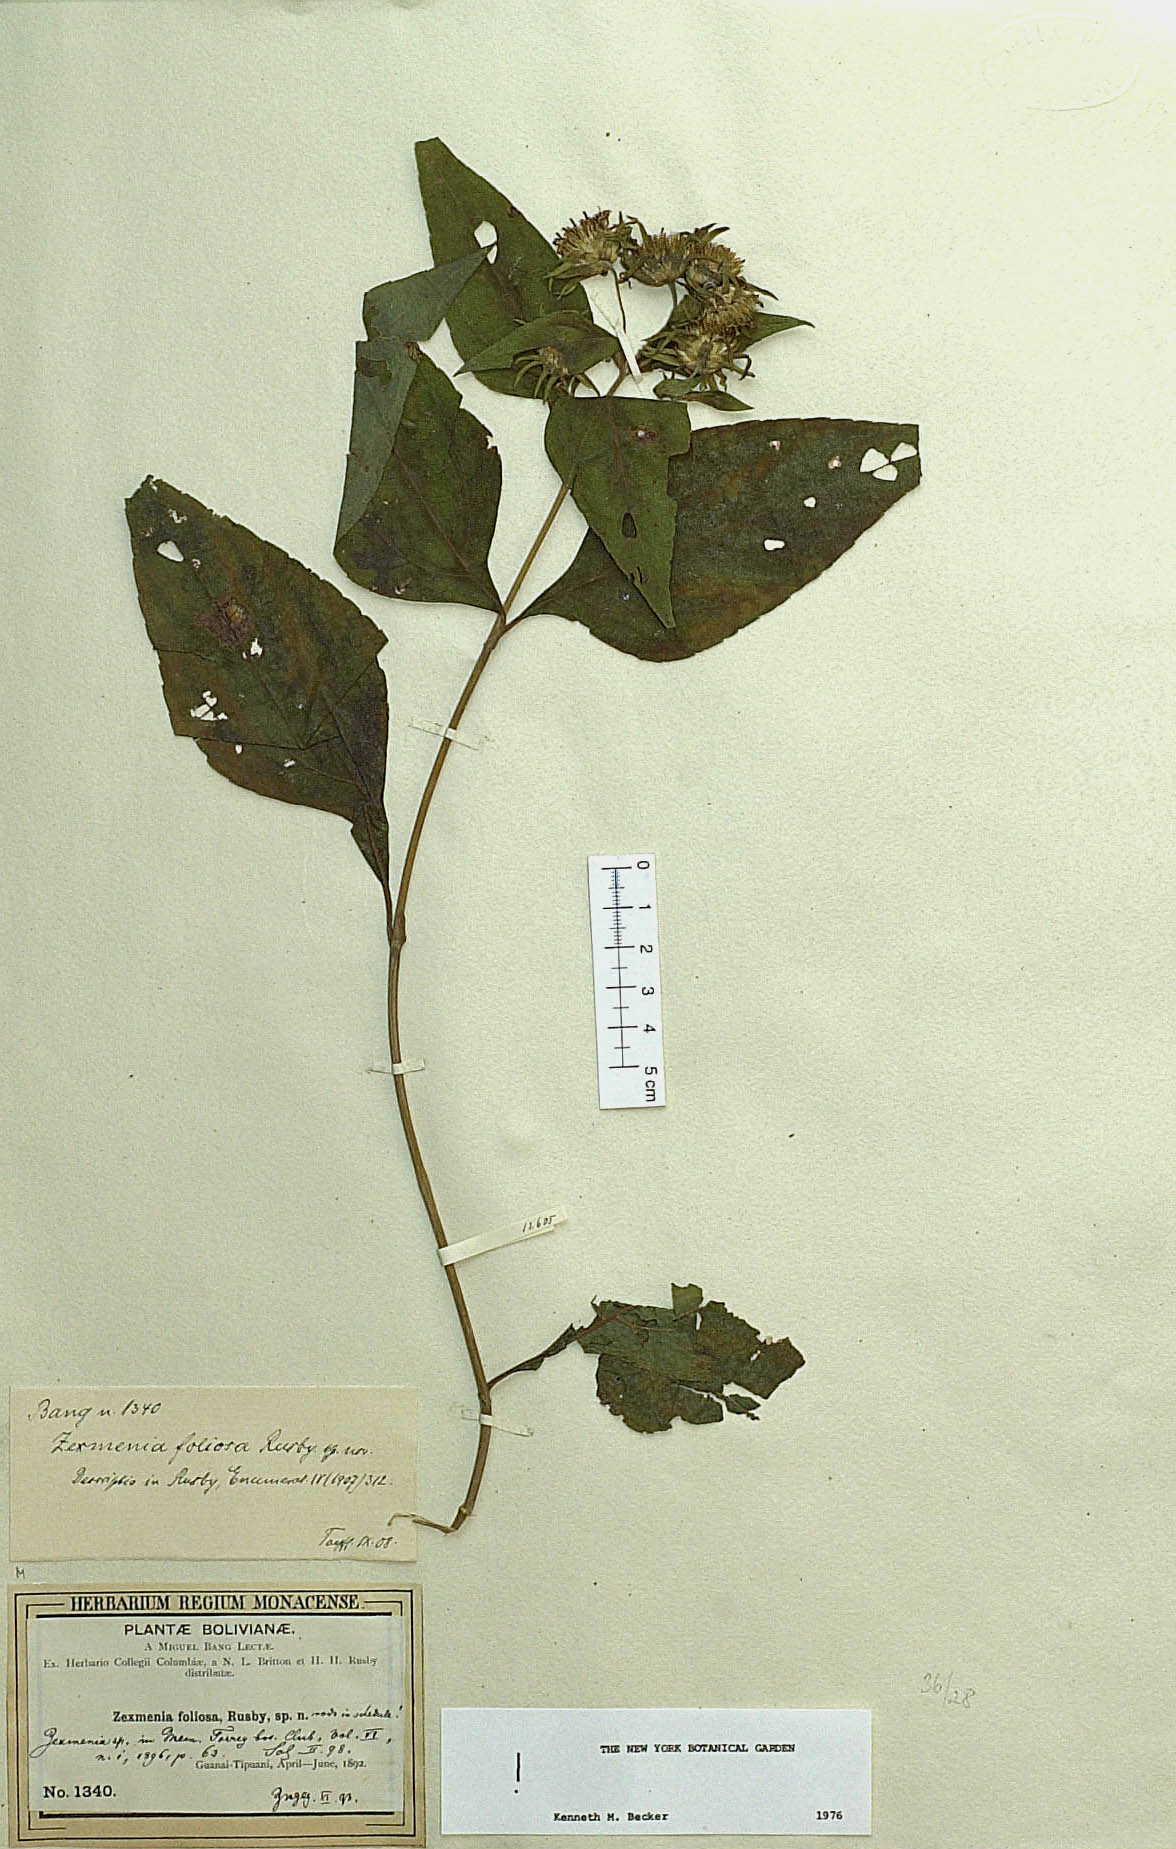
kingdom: Plantae
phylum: Tracheophyta
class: Magnoliopsida
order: Asterales
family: Asteraceae
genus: Zexmenia
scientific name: Zexmenia foliosa
